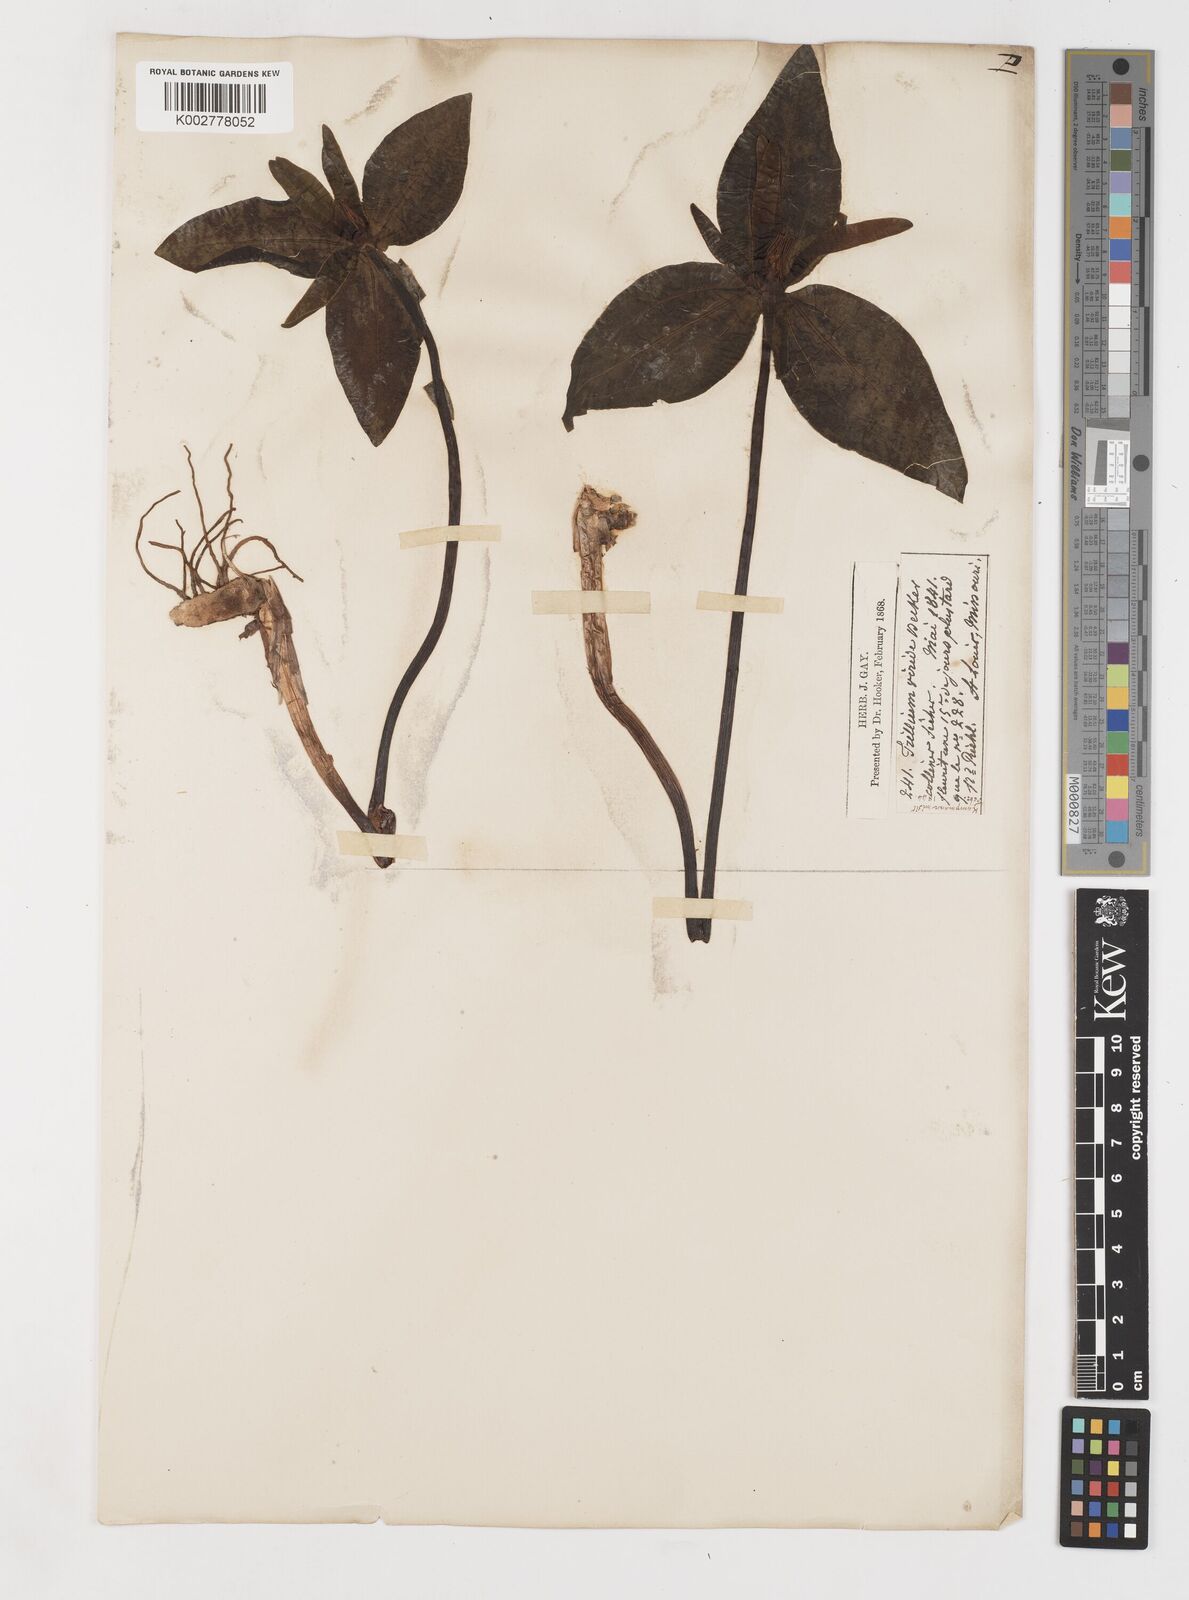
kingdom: Plantae
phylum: Tracheophyta
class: Liliopsida
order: Liliales
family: Melanthiaceae
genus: Trillium
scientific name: Trillium viridescens
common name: Ozark green trillium
